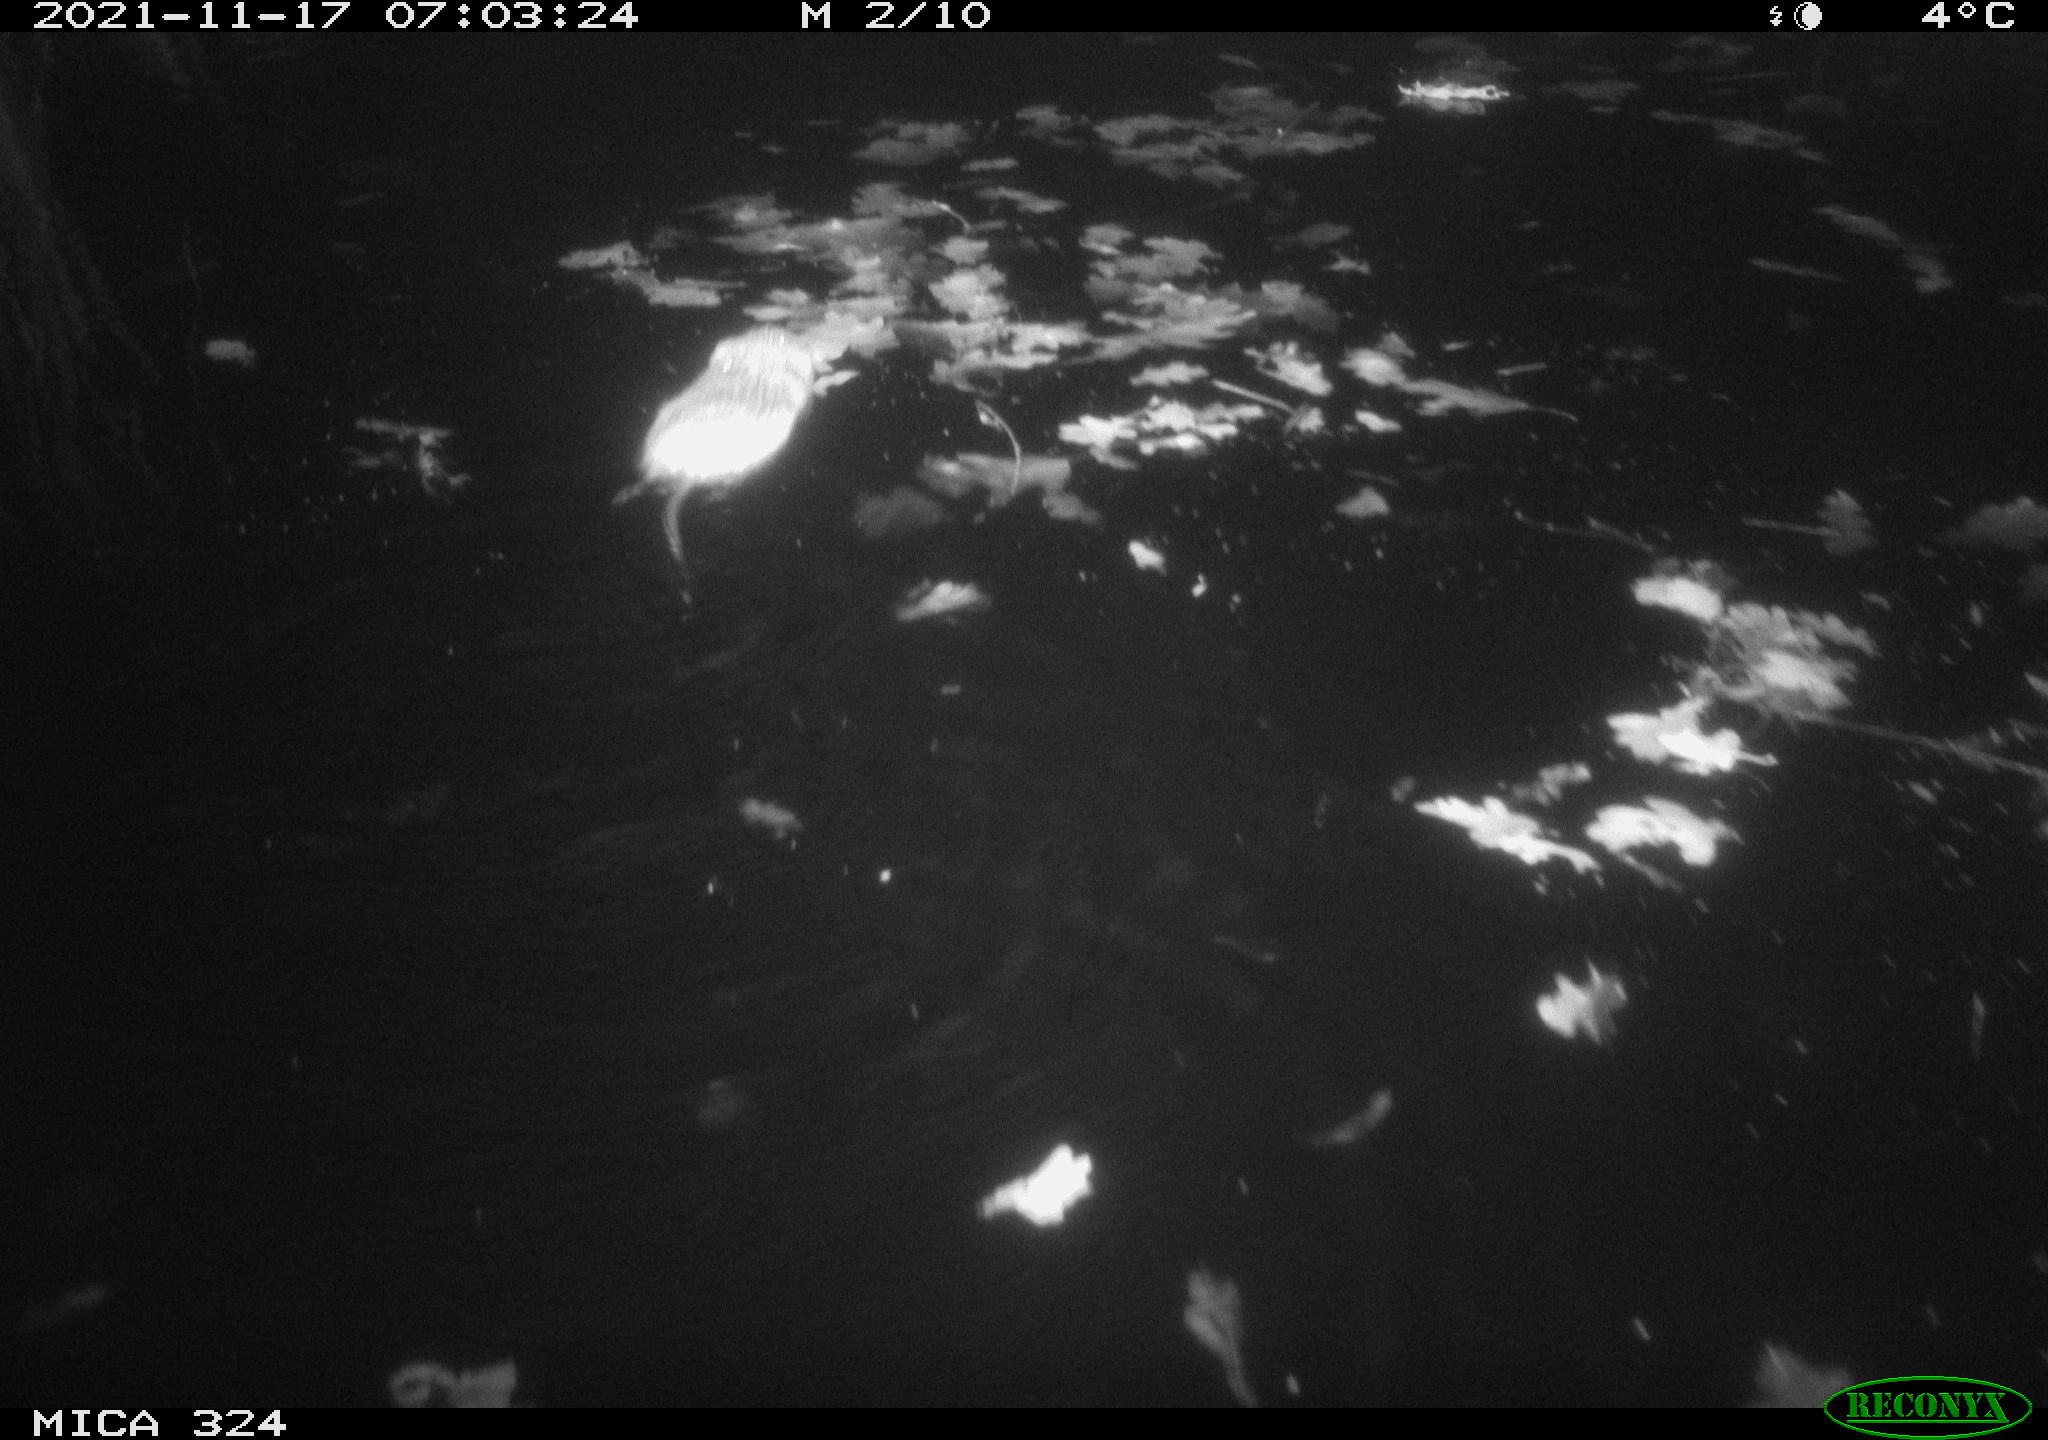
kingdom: Animalia
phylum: Chordata
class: Mammalia
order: Rodentia
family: Cricetidae
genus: Ondatra
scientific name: Ondatra zibethicus
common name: Muskrat
